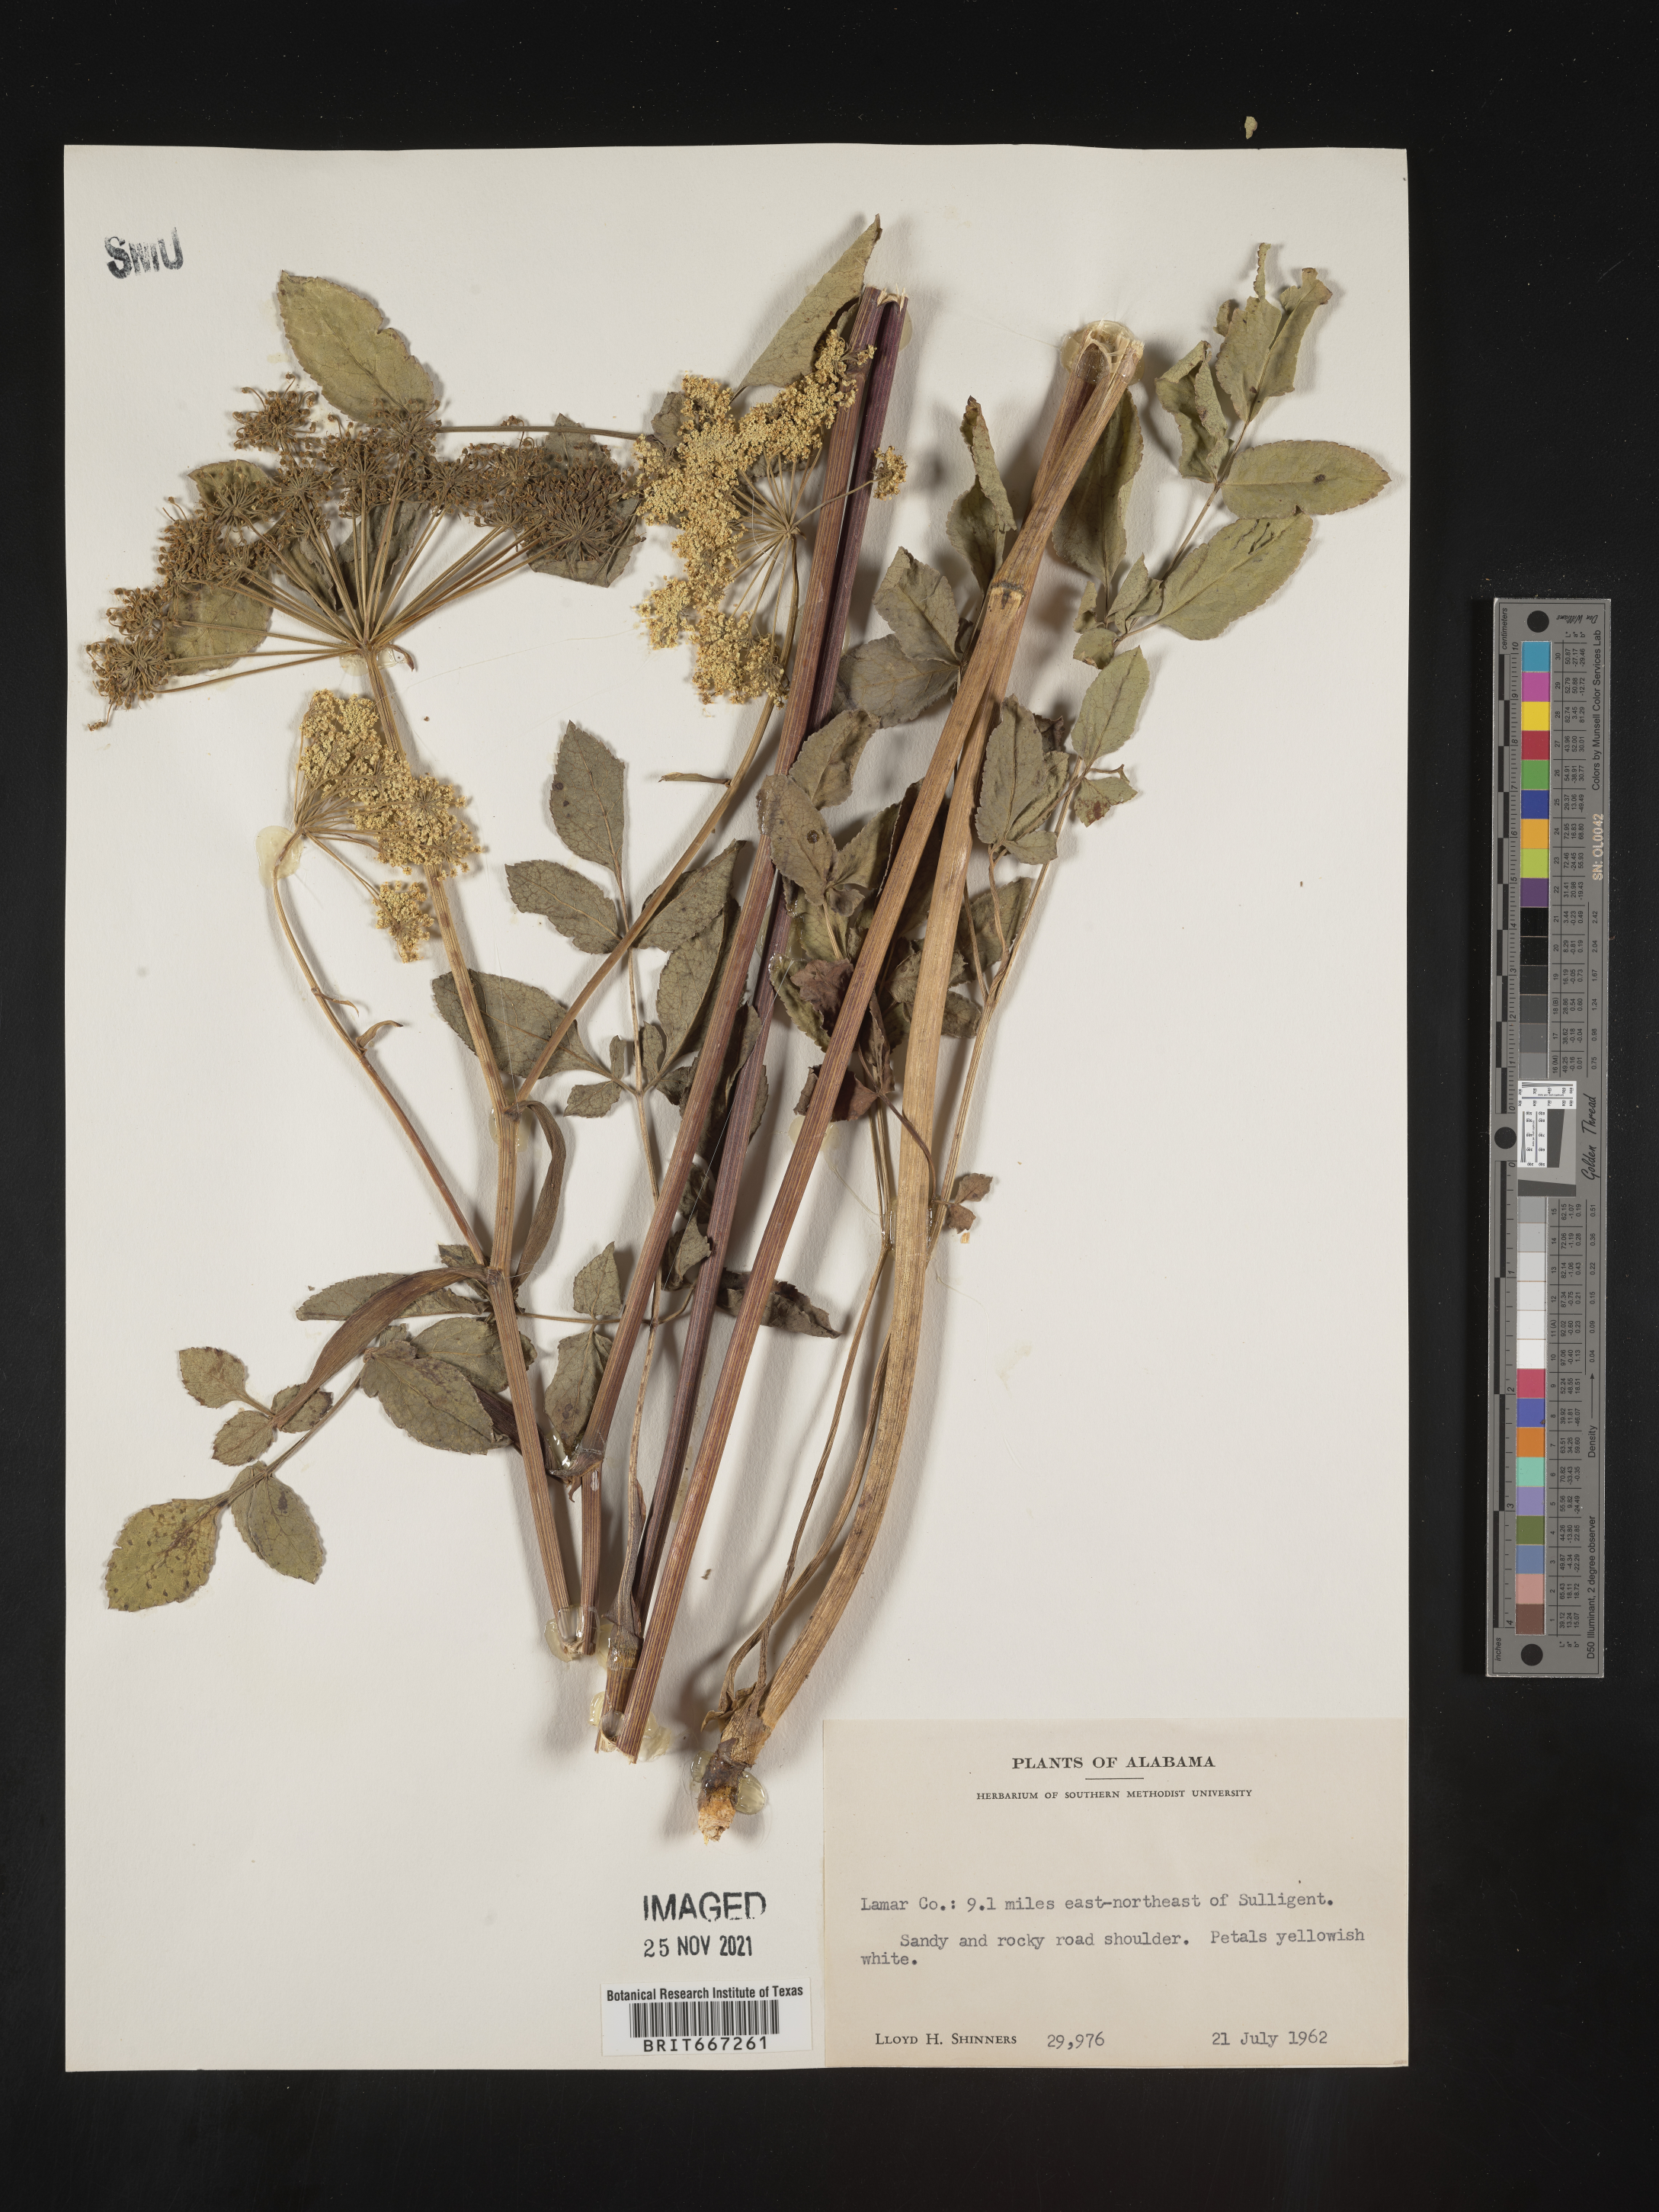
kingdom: Plantae
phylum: Tracheophyta
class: Magnoliopsida
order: Apiales
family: Apiaceae
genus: Angelica
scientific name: Angelica
